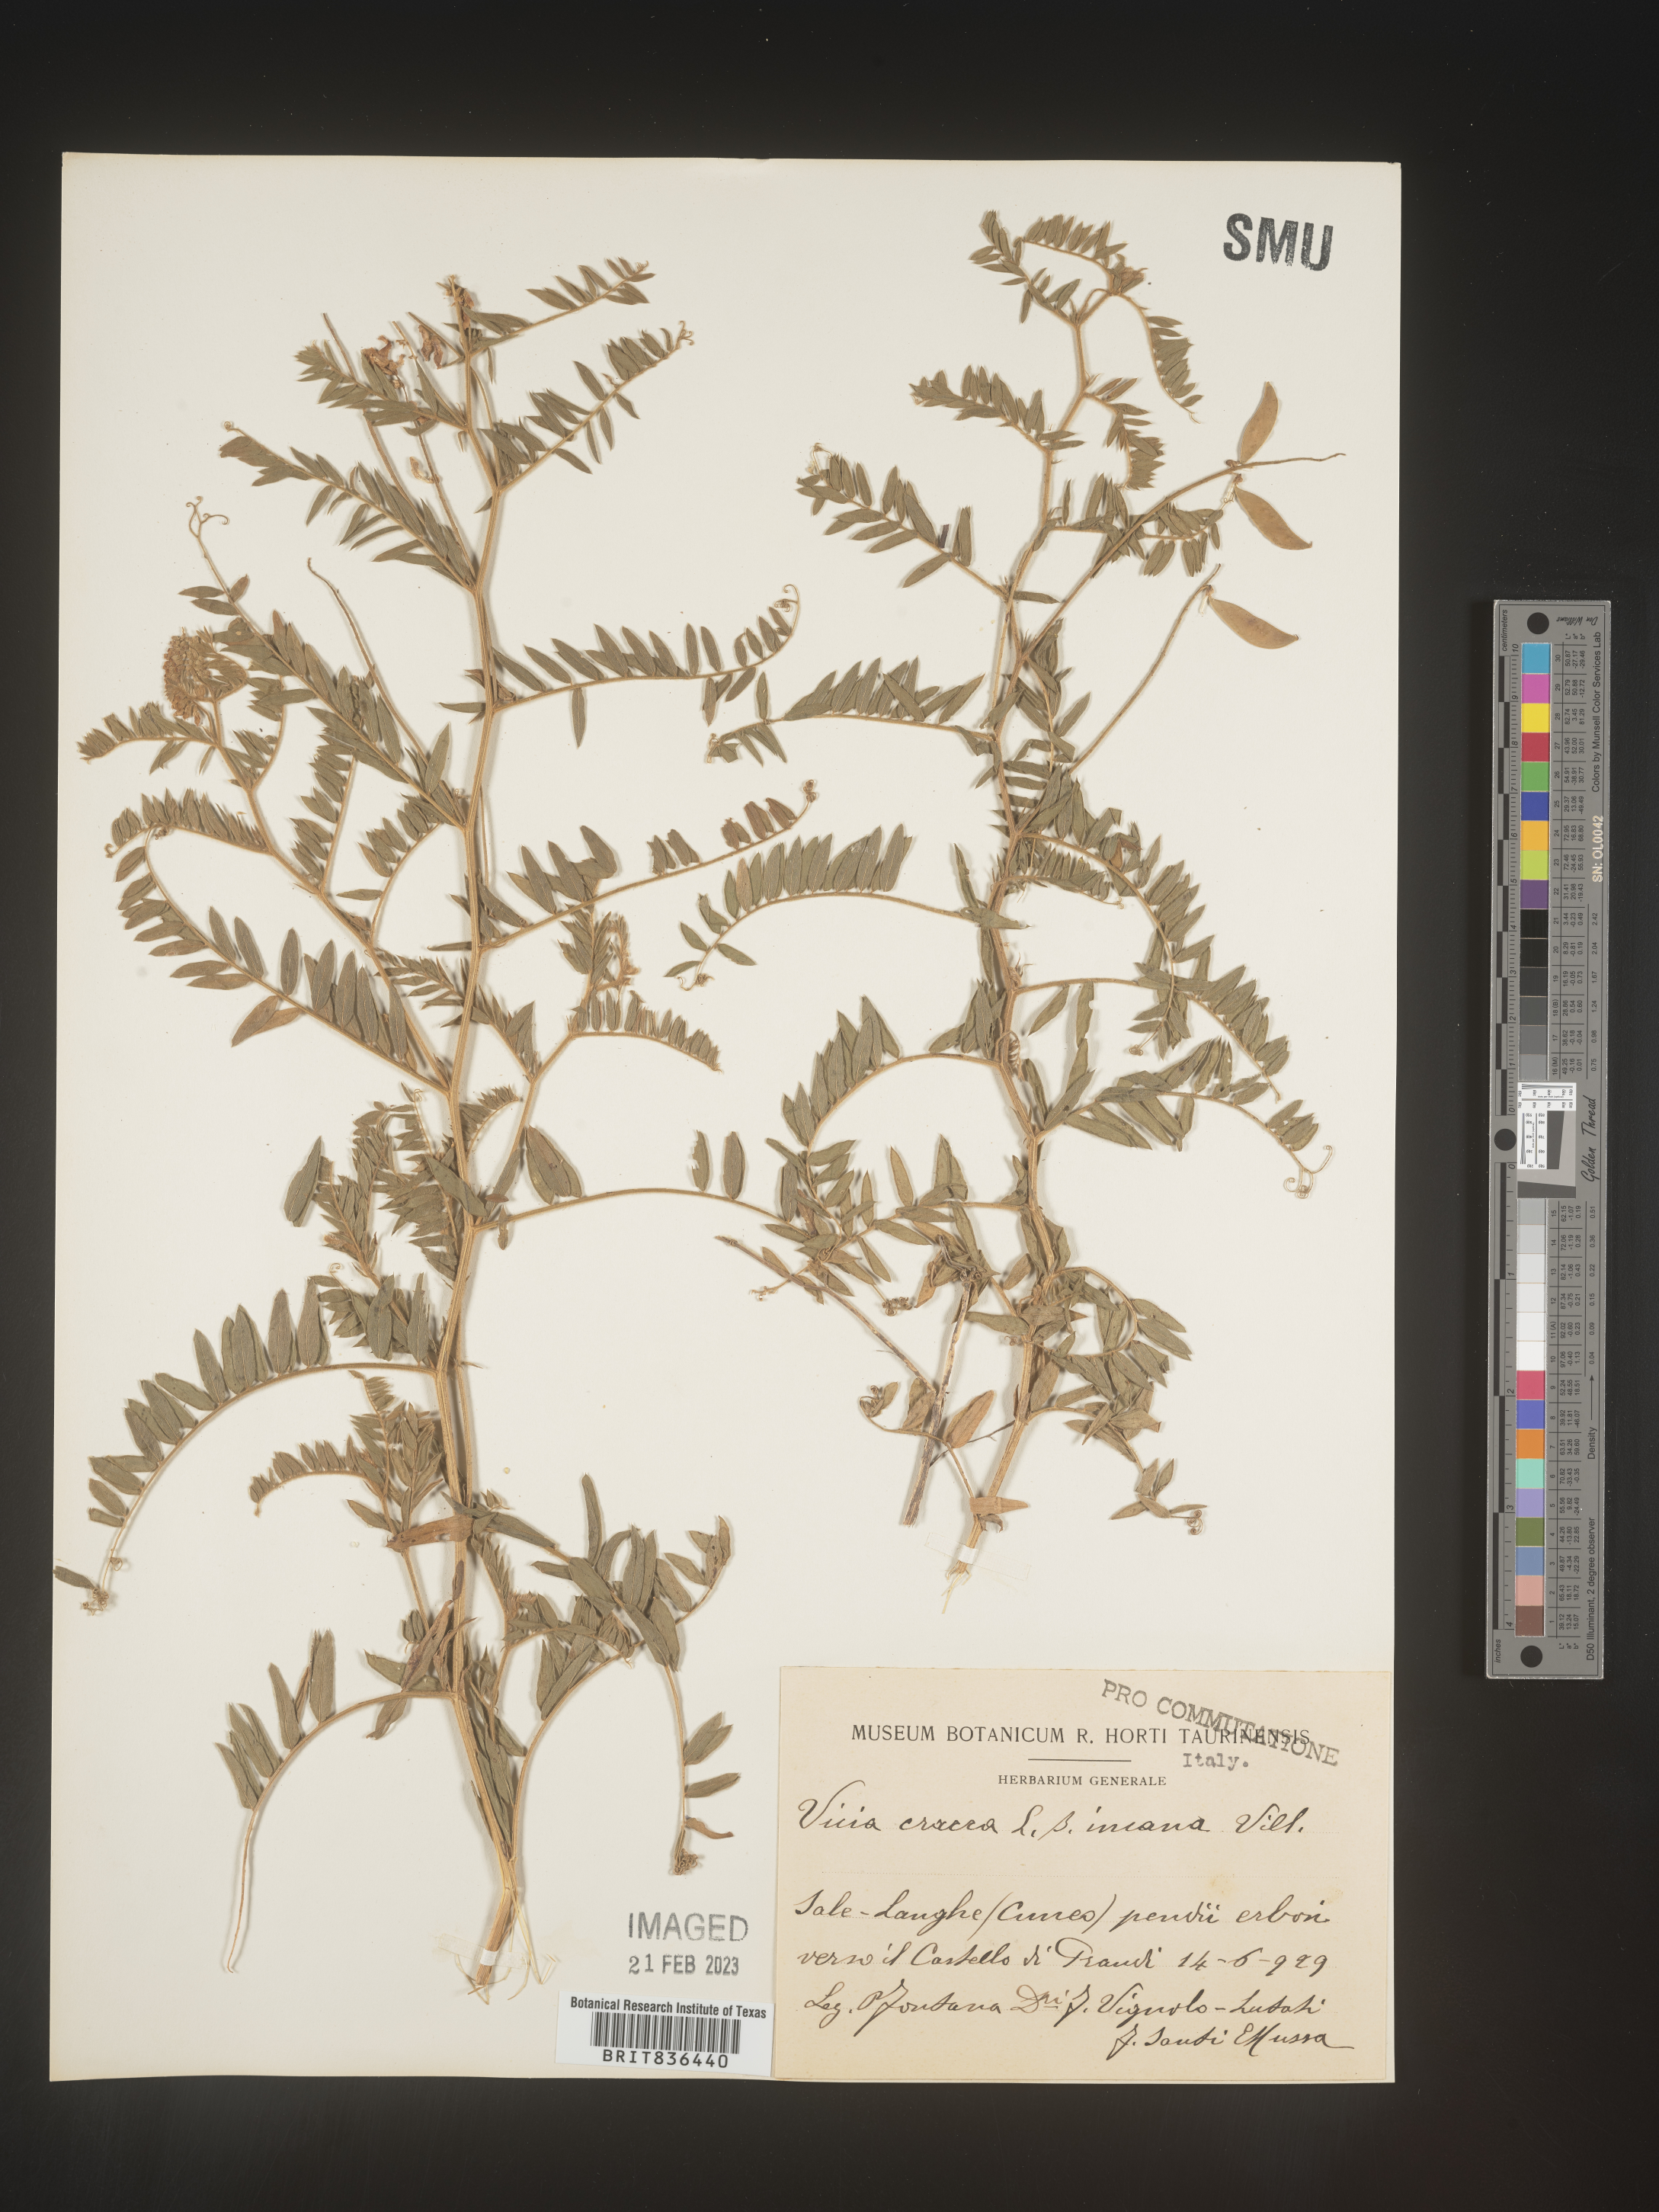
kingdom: Plantae
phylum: Tracheophyta
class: Magnoliopsida
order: Fabales
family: Fabaceae
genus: Vicia
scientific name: Vicia
